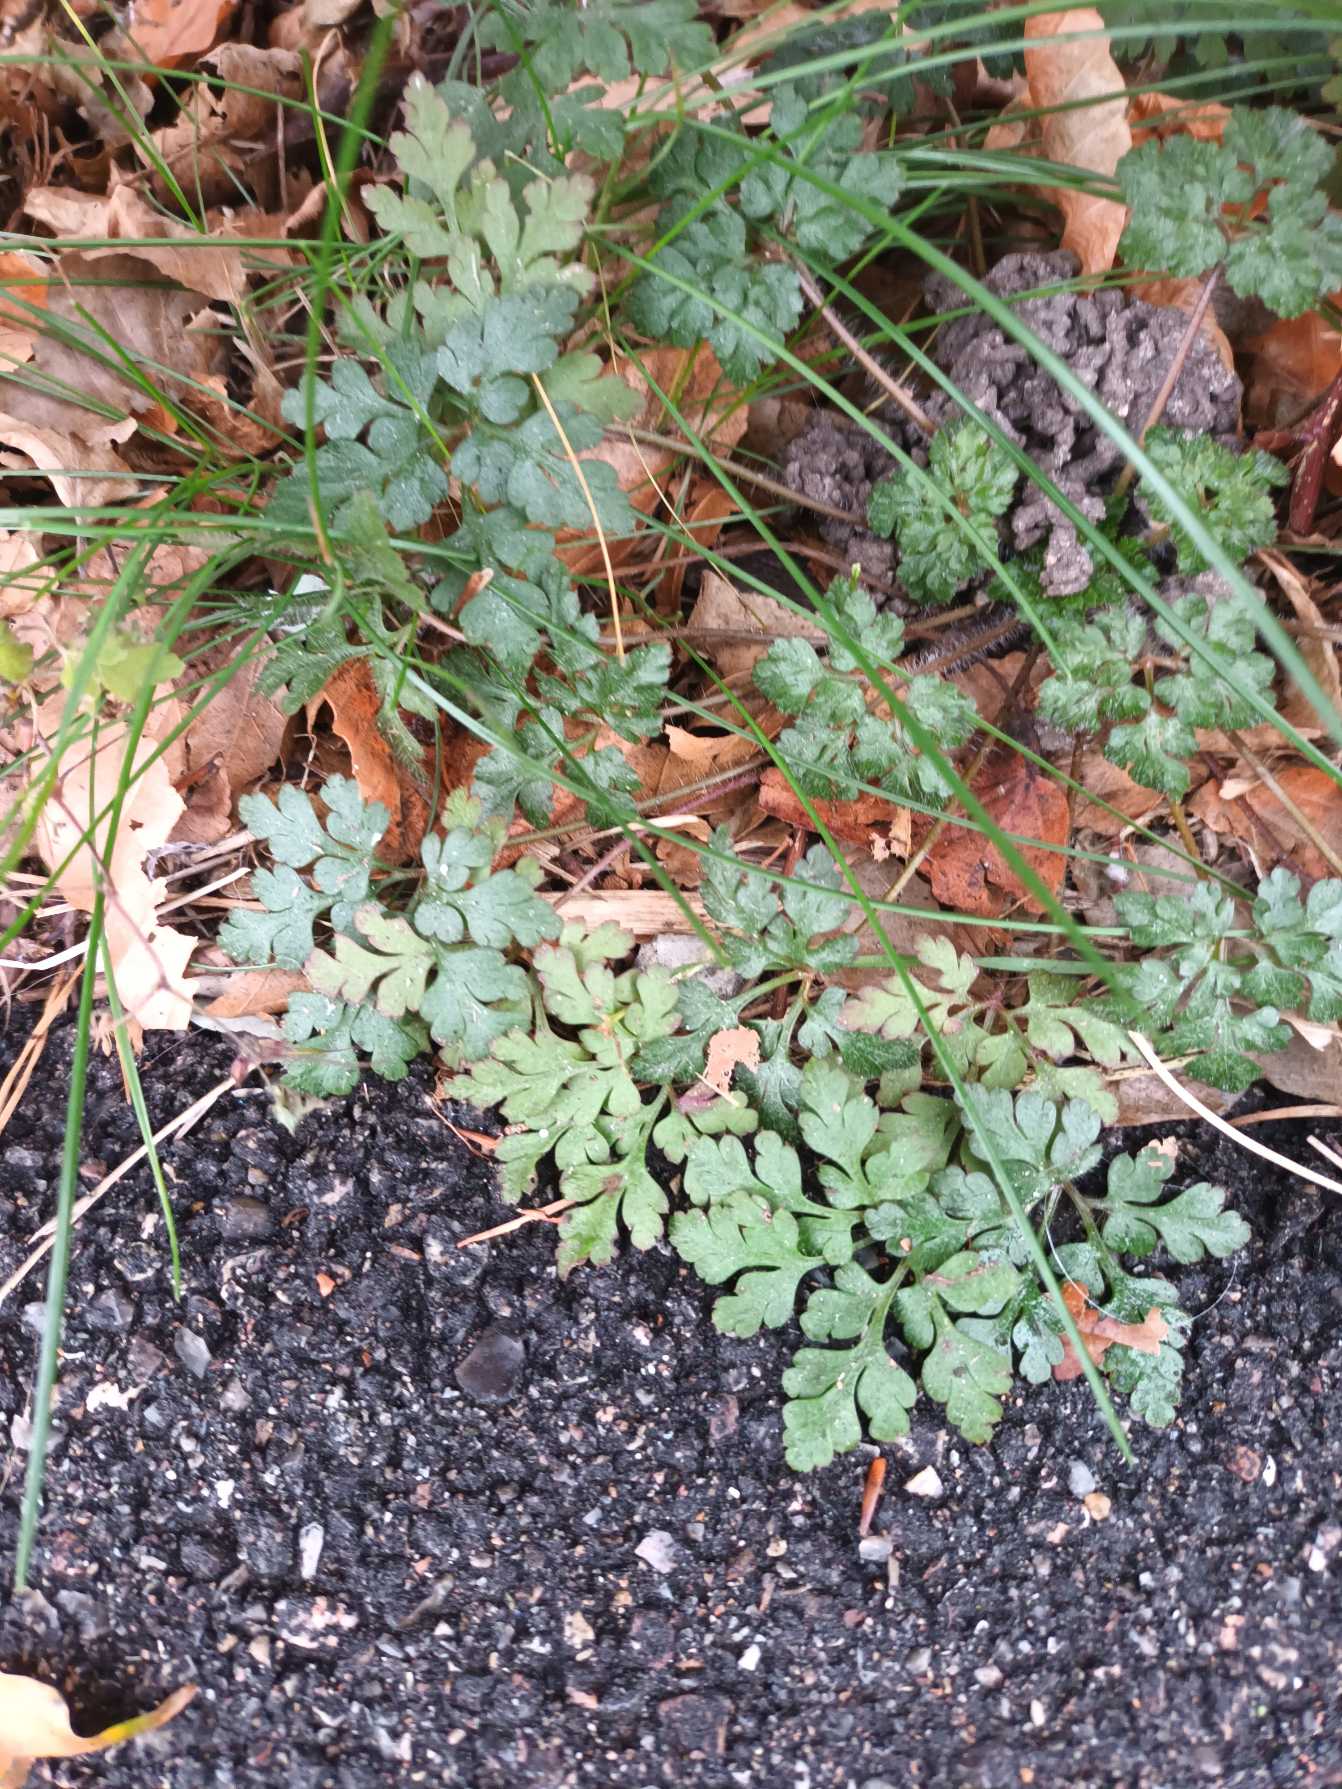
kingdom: Plantae
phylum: Tracheophyta
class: Magnoliopsida
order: Geraniales
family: Geraniaceae
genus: Geranium
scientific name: Geranium robertianum
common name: Stinkende storkenæb
